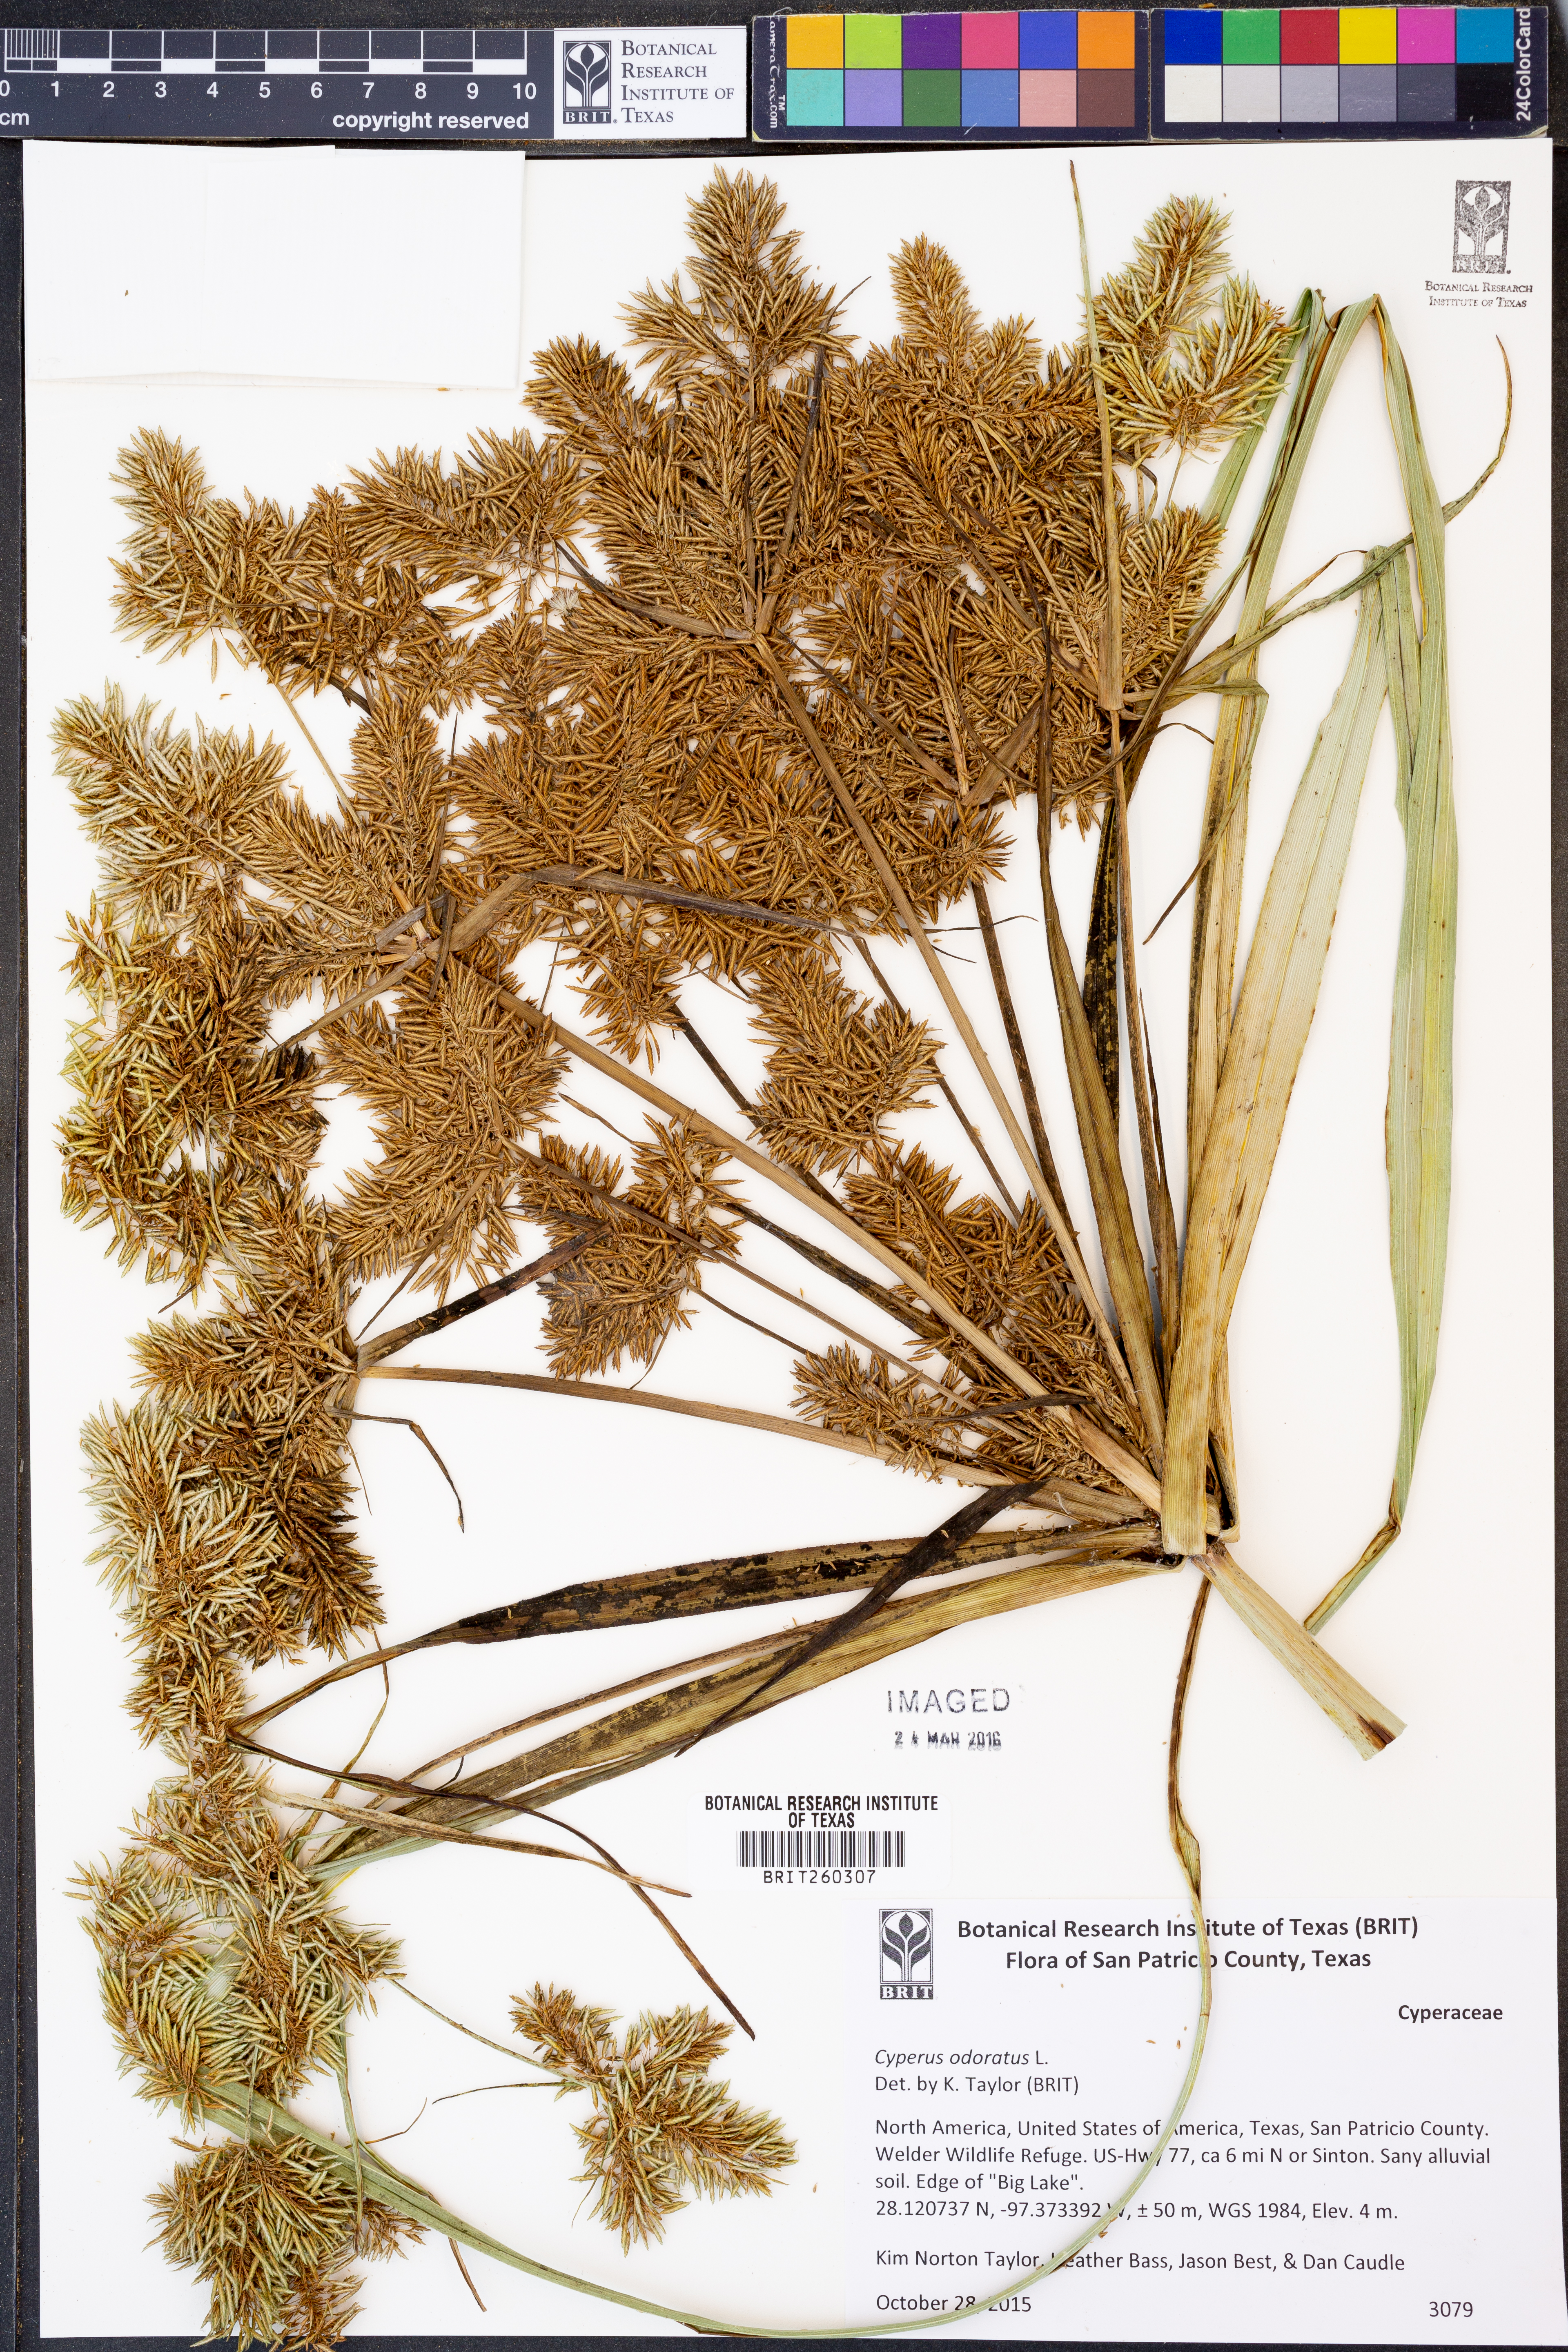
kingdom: Plantae
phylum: Tracheophyta
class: Liliopsida
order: Poales
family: Cyperaceae
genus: Cyperus
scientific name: Cyperus odoratus
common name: Fragrant flatsedge
